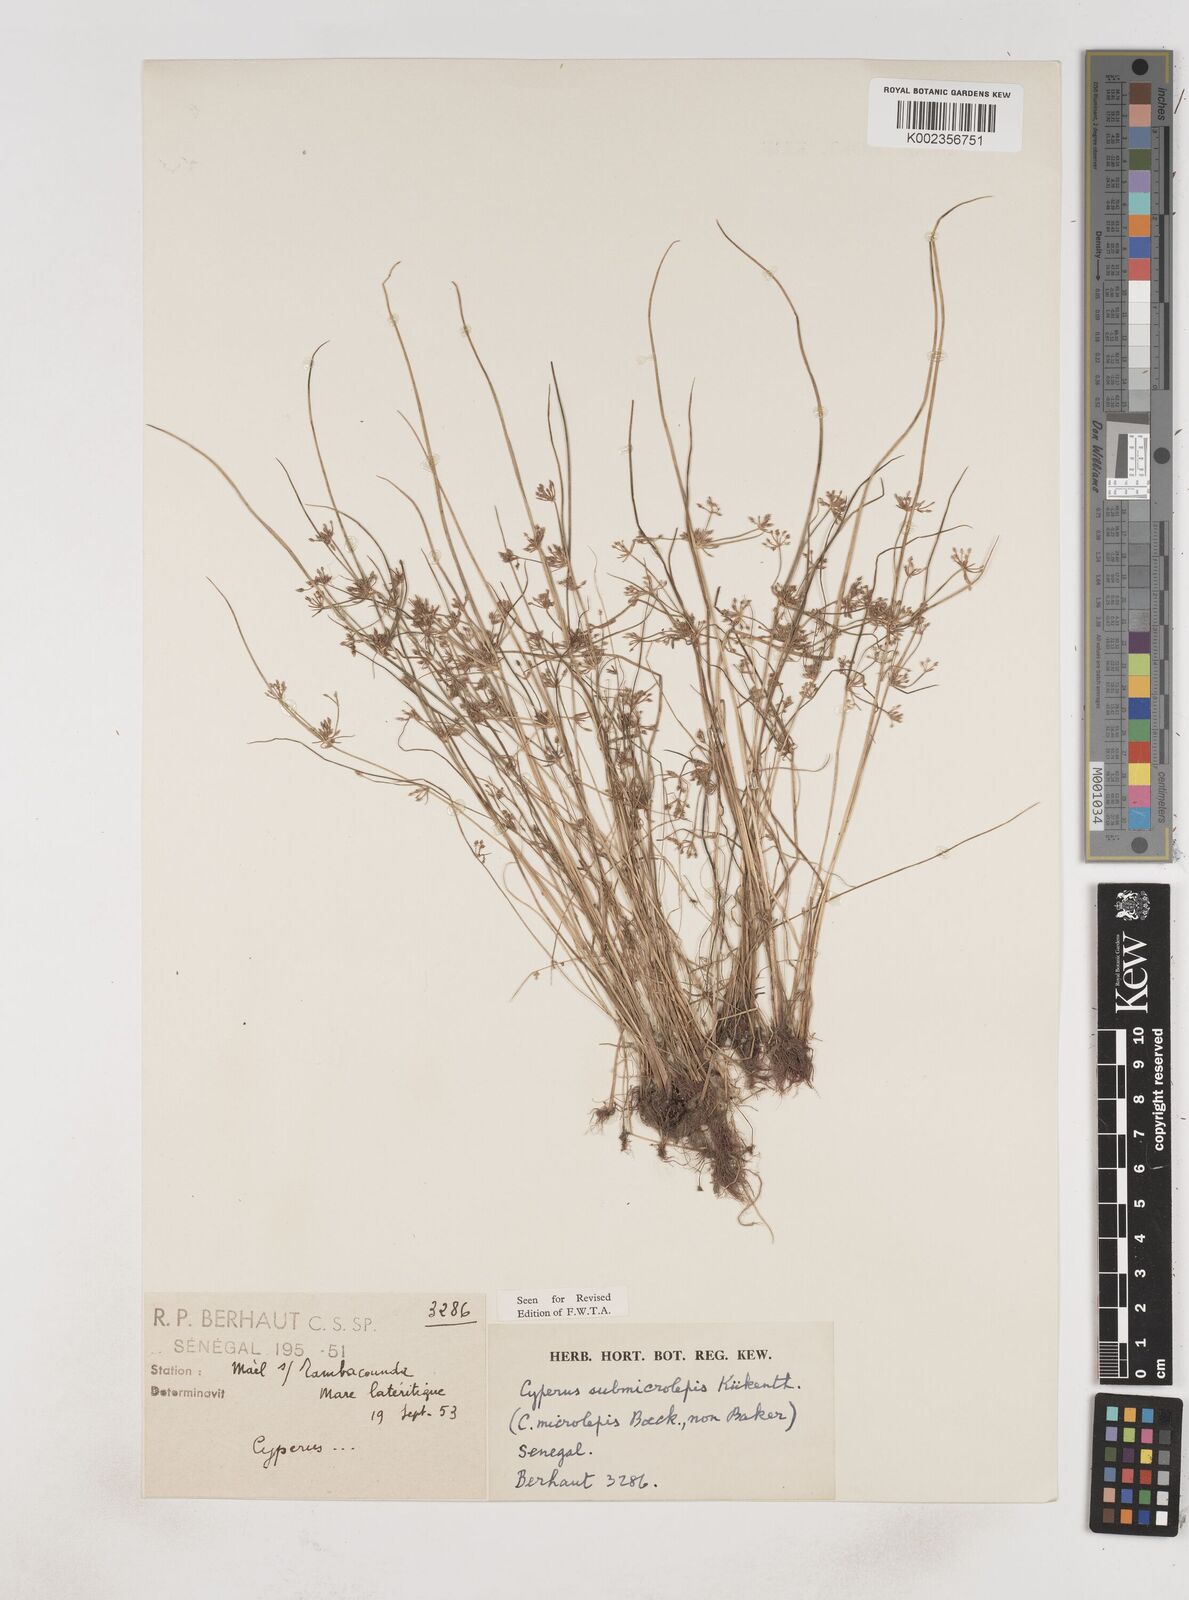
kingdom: Plantae
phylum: Tracheophyta
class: Liliopsida
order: Poales
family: Cyperaceae
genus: Cyperus
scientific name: Cyperus submicrolepis
